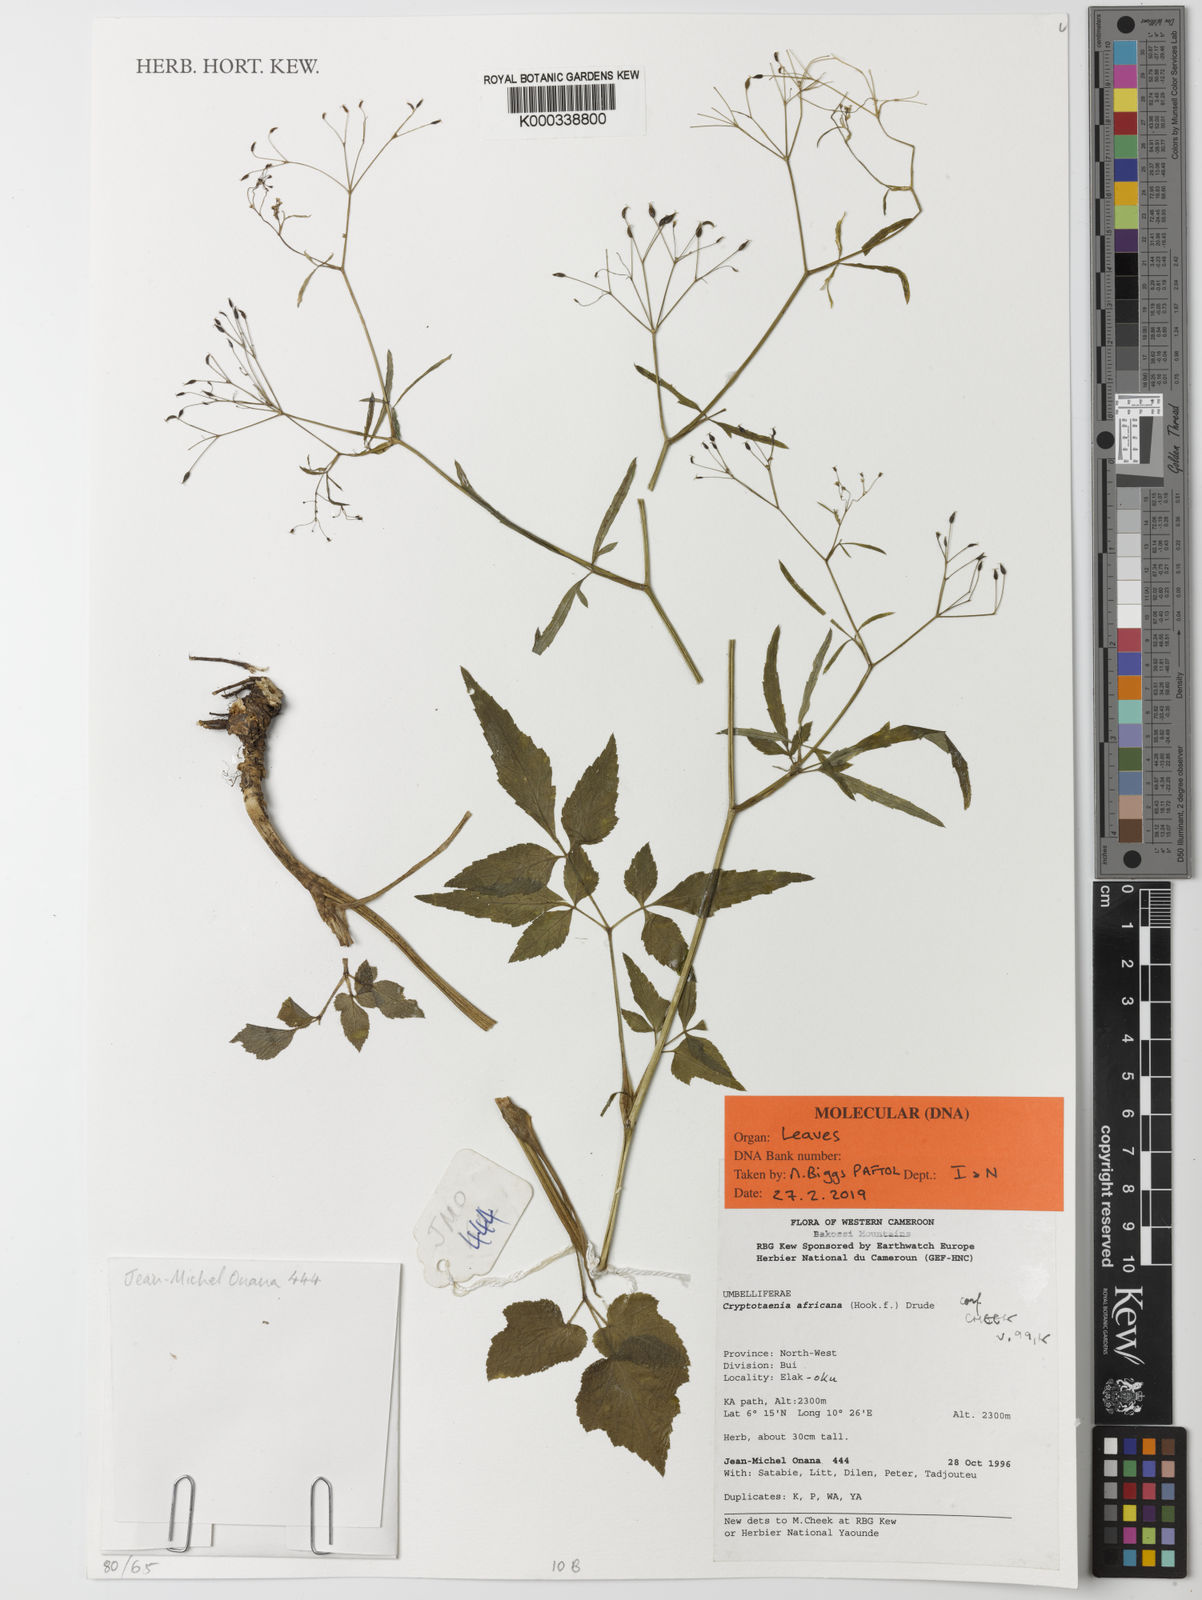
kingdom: Plantae
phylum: Tracheophyta
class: Magnoliopsida
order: Apiales
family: Apiaceae
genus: Cryptotaenia
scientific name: Cryptotaenia africana
